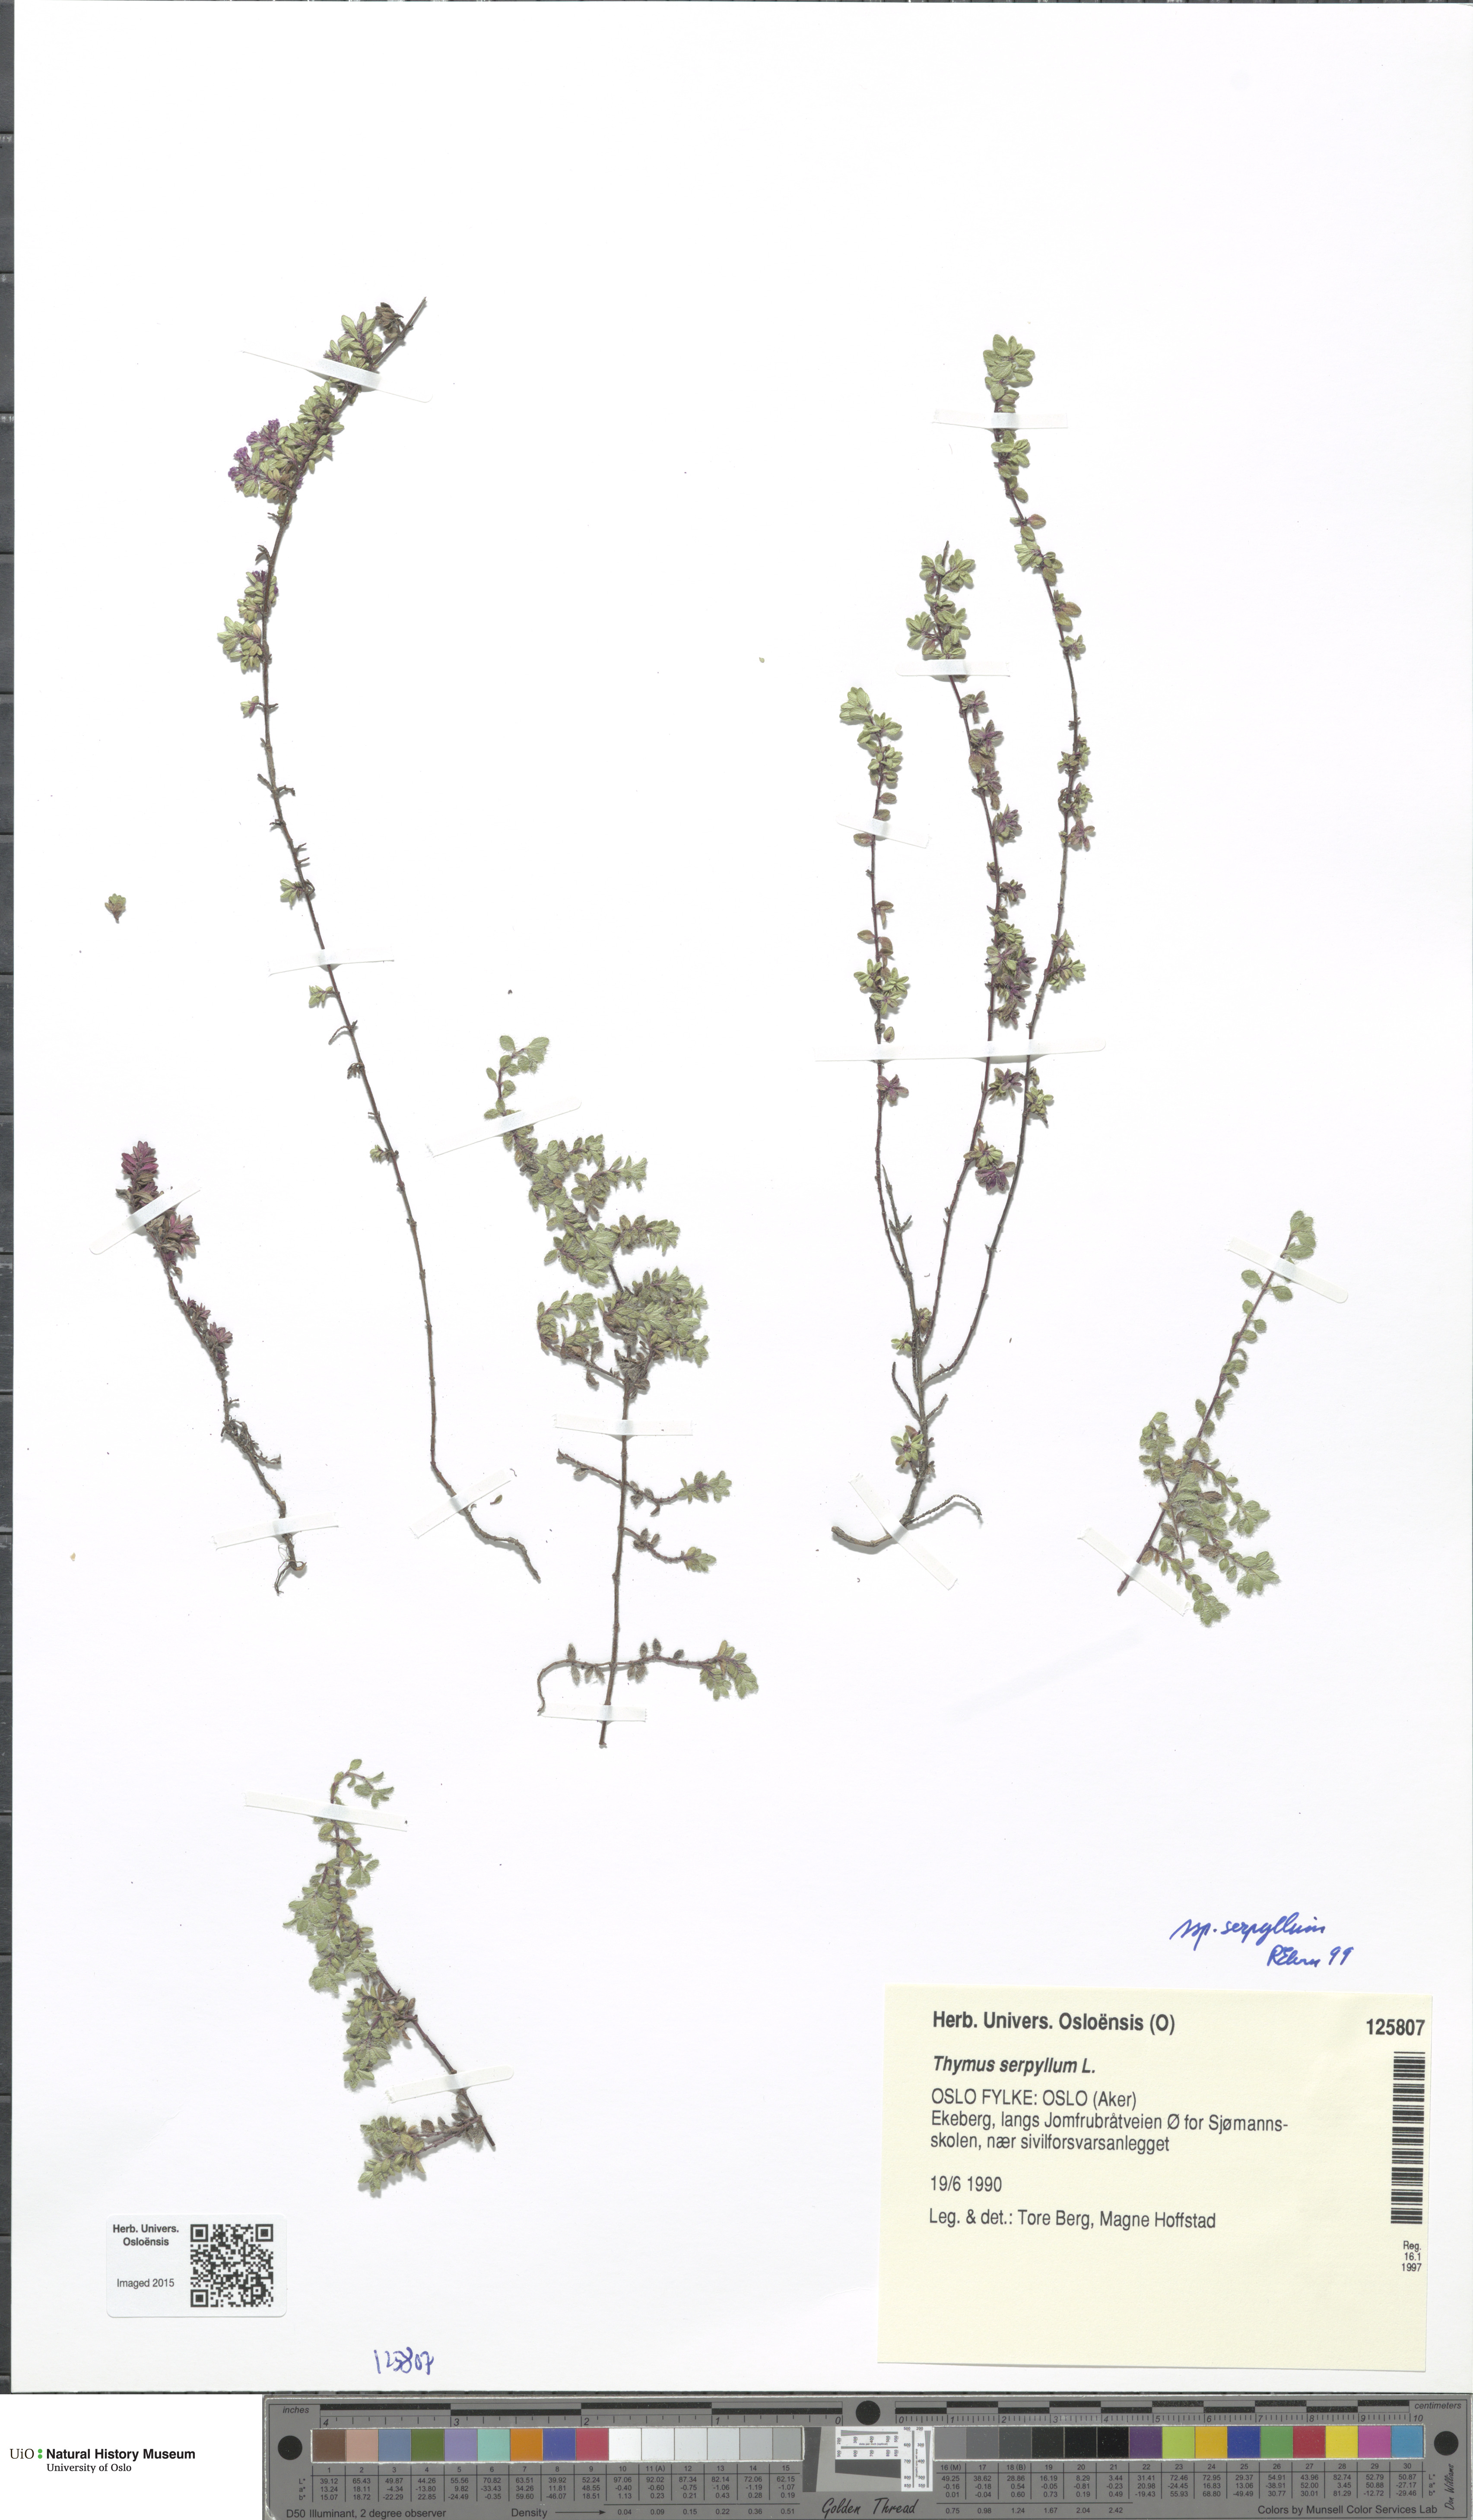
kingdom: Plantae
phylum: Tracheophyta
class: Magnoliopsida
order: Lamiales
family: Lamiaceae
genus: Thymus
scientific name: Thymus serpyllum
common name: Breckland thyme
